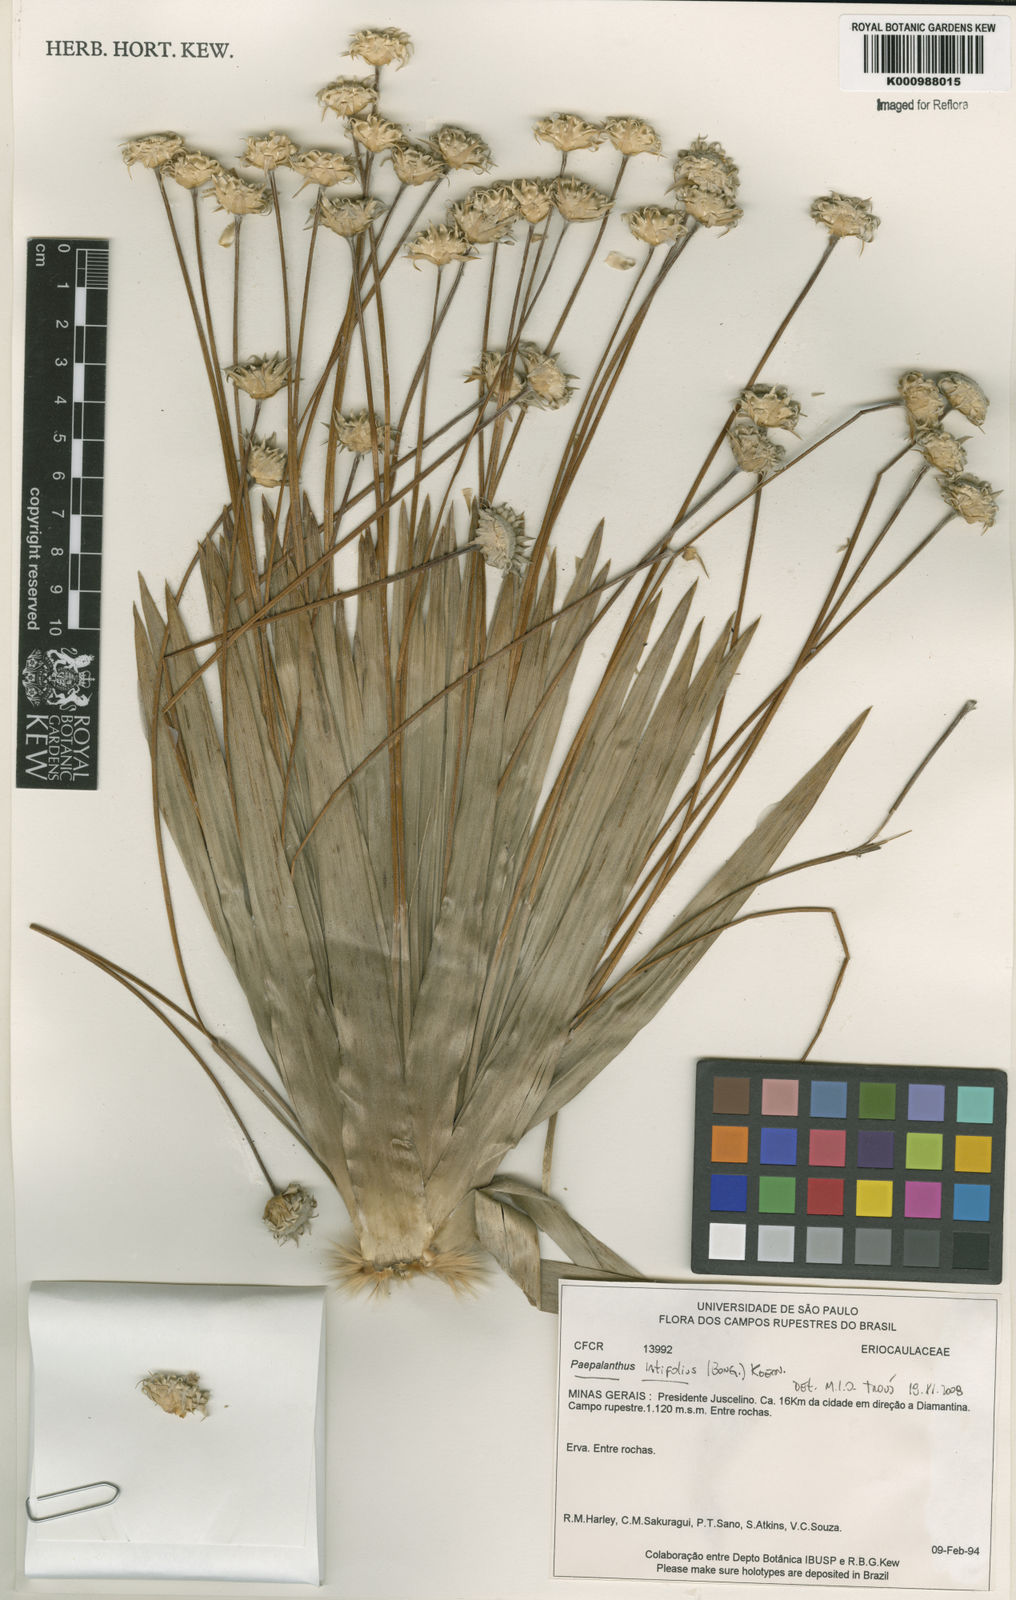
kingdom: Plantae
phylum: Tracheophyta
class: Liliopsida
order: Poales
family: Eriocaulaceae
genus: Paepalanthus
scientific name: Paepalanthus
